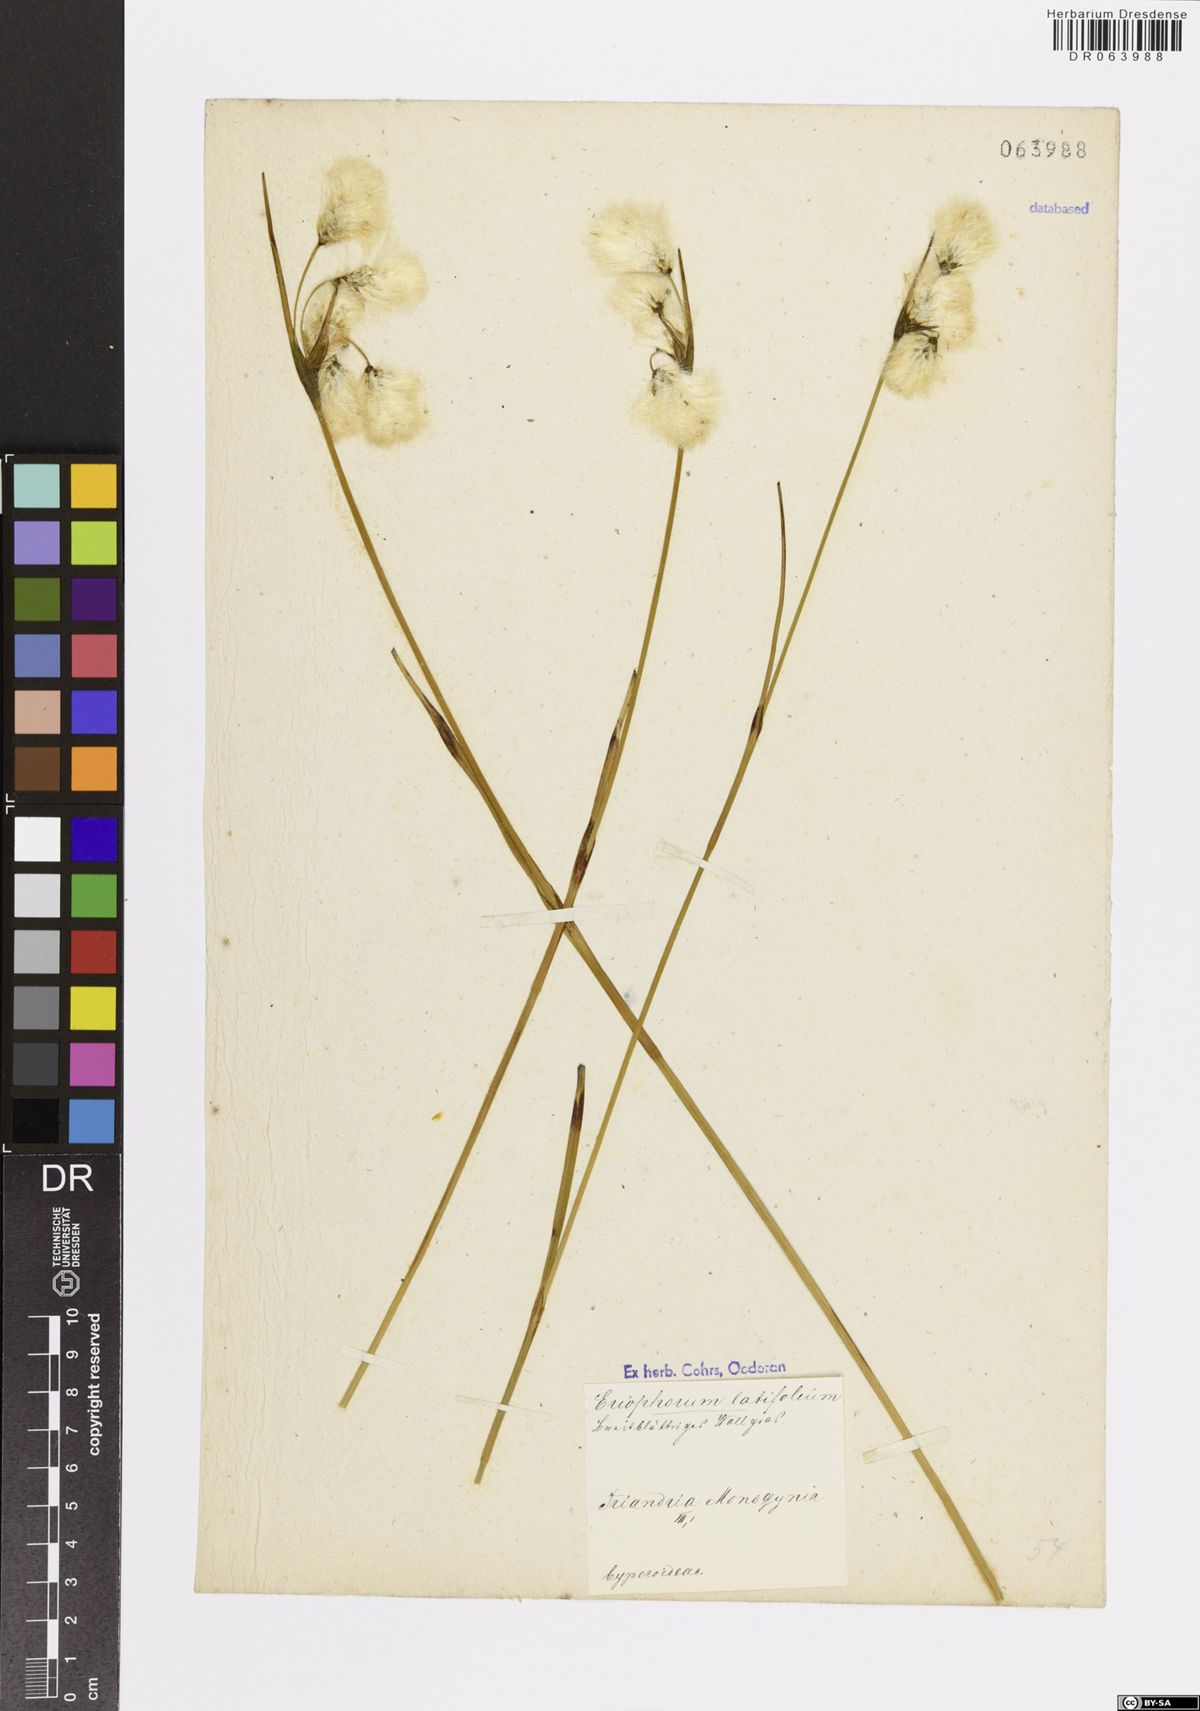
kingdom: Plantae
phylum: Tracheophyta
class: Liliopsida
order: Poales
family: Cyperaceae
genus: Eriophorum
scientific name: Eriophorum latifolium
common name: Broad-leaved cottongrass
